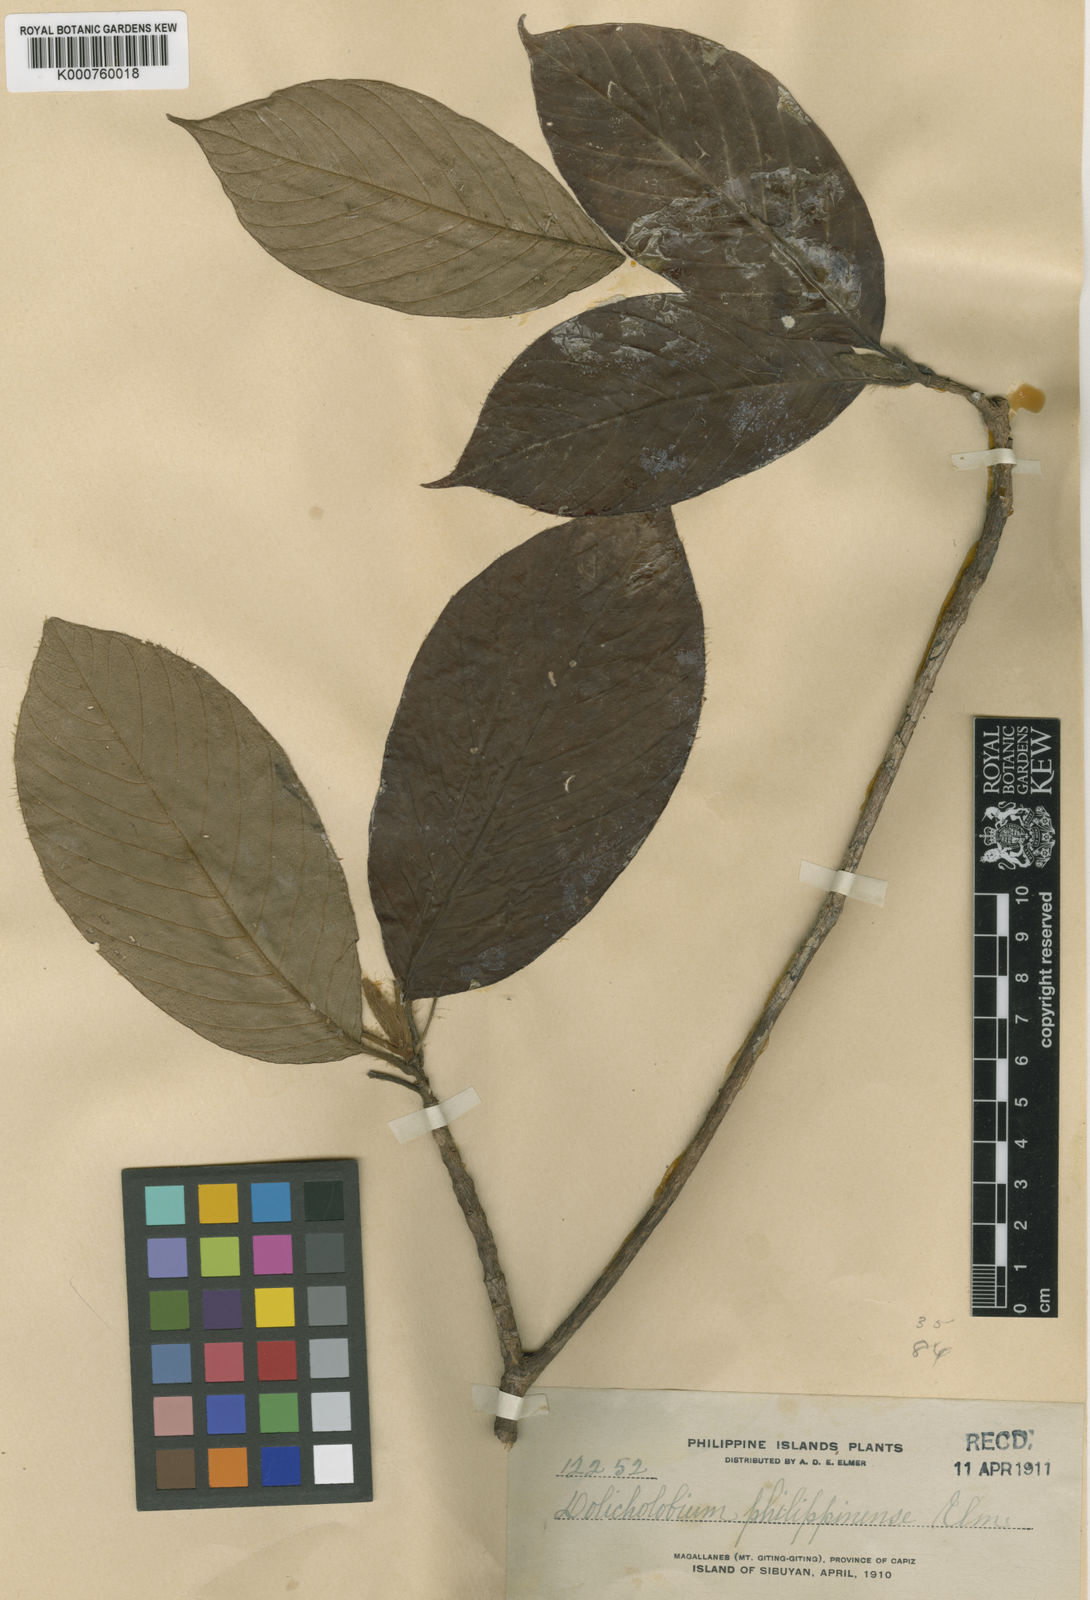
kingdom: Plantae
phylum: Tracheophyta
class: Magnoliopsida
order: Gentianales
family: Rubiaceae
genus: Dolicholobium
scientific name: Dolicholobium philippinense
